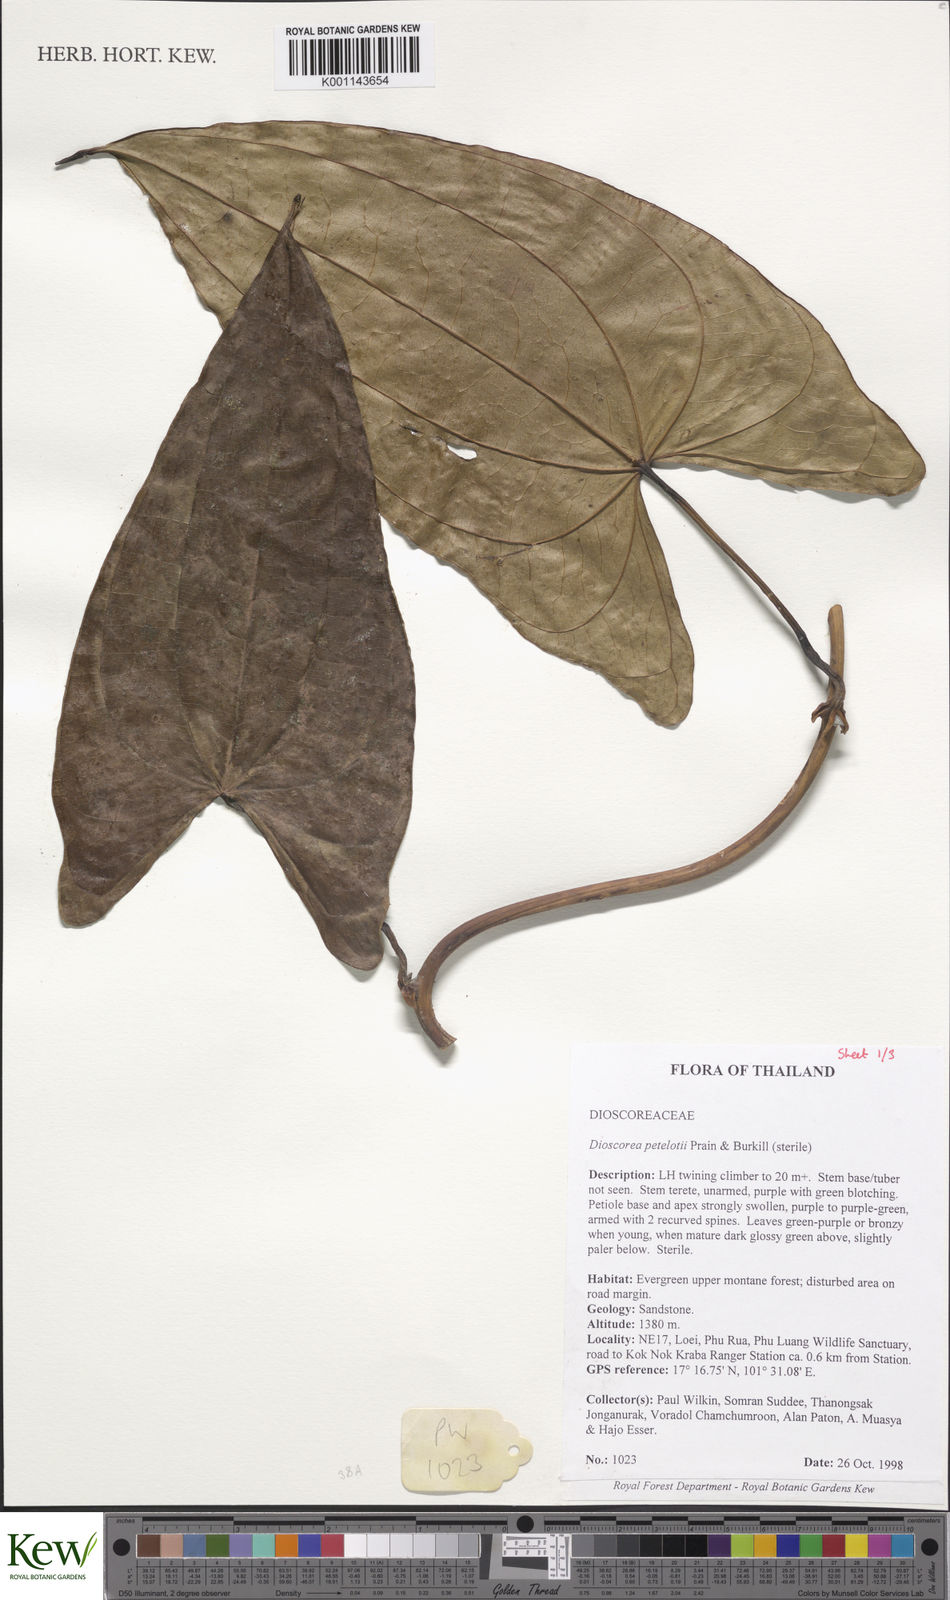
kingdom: Plantae
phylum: Tracheophyta
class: Liliopsida
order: Dioscoreales
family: Dioscoreaceae
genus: Dioscorea
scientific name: Dioscorea petelotii
